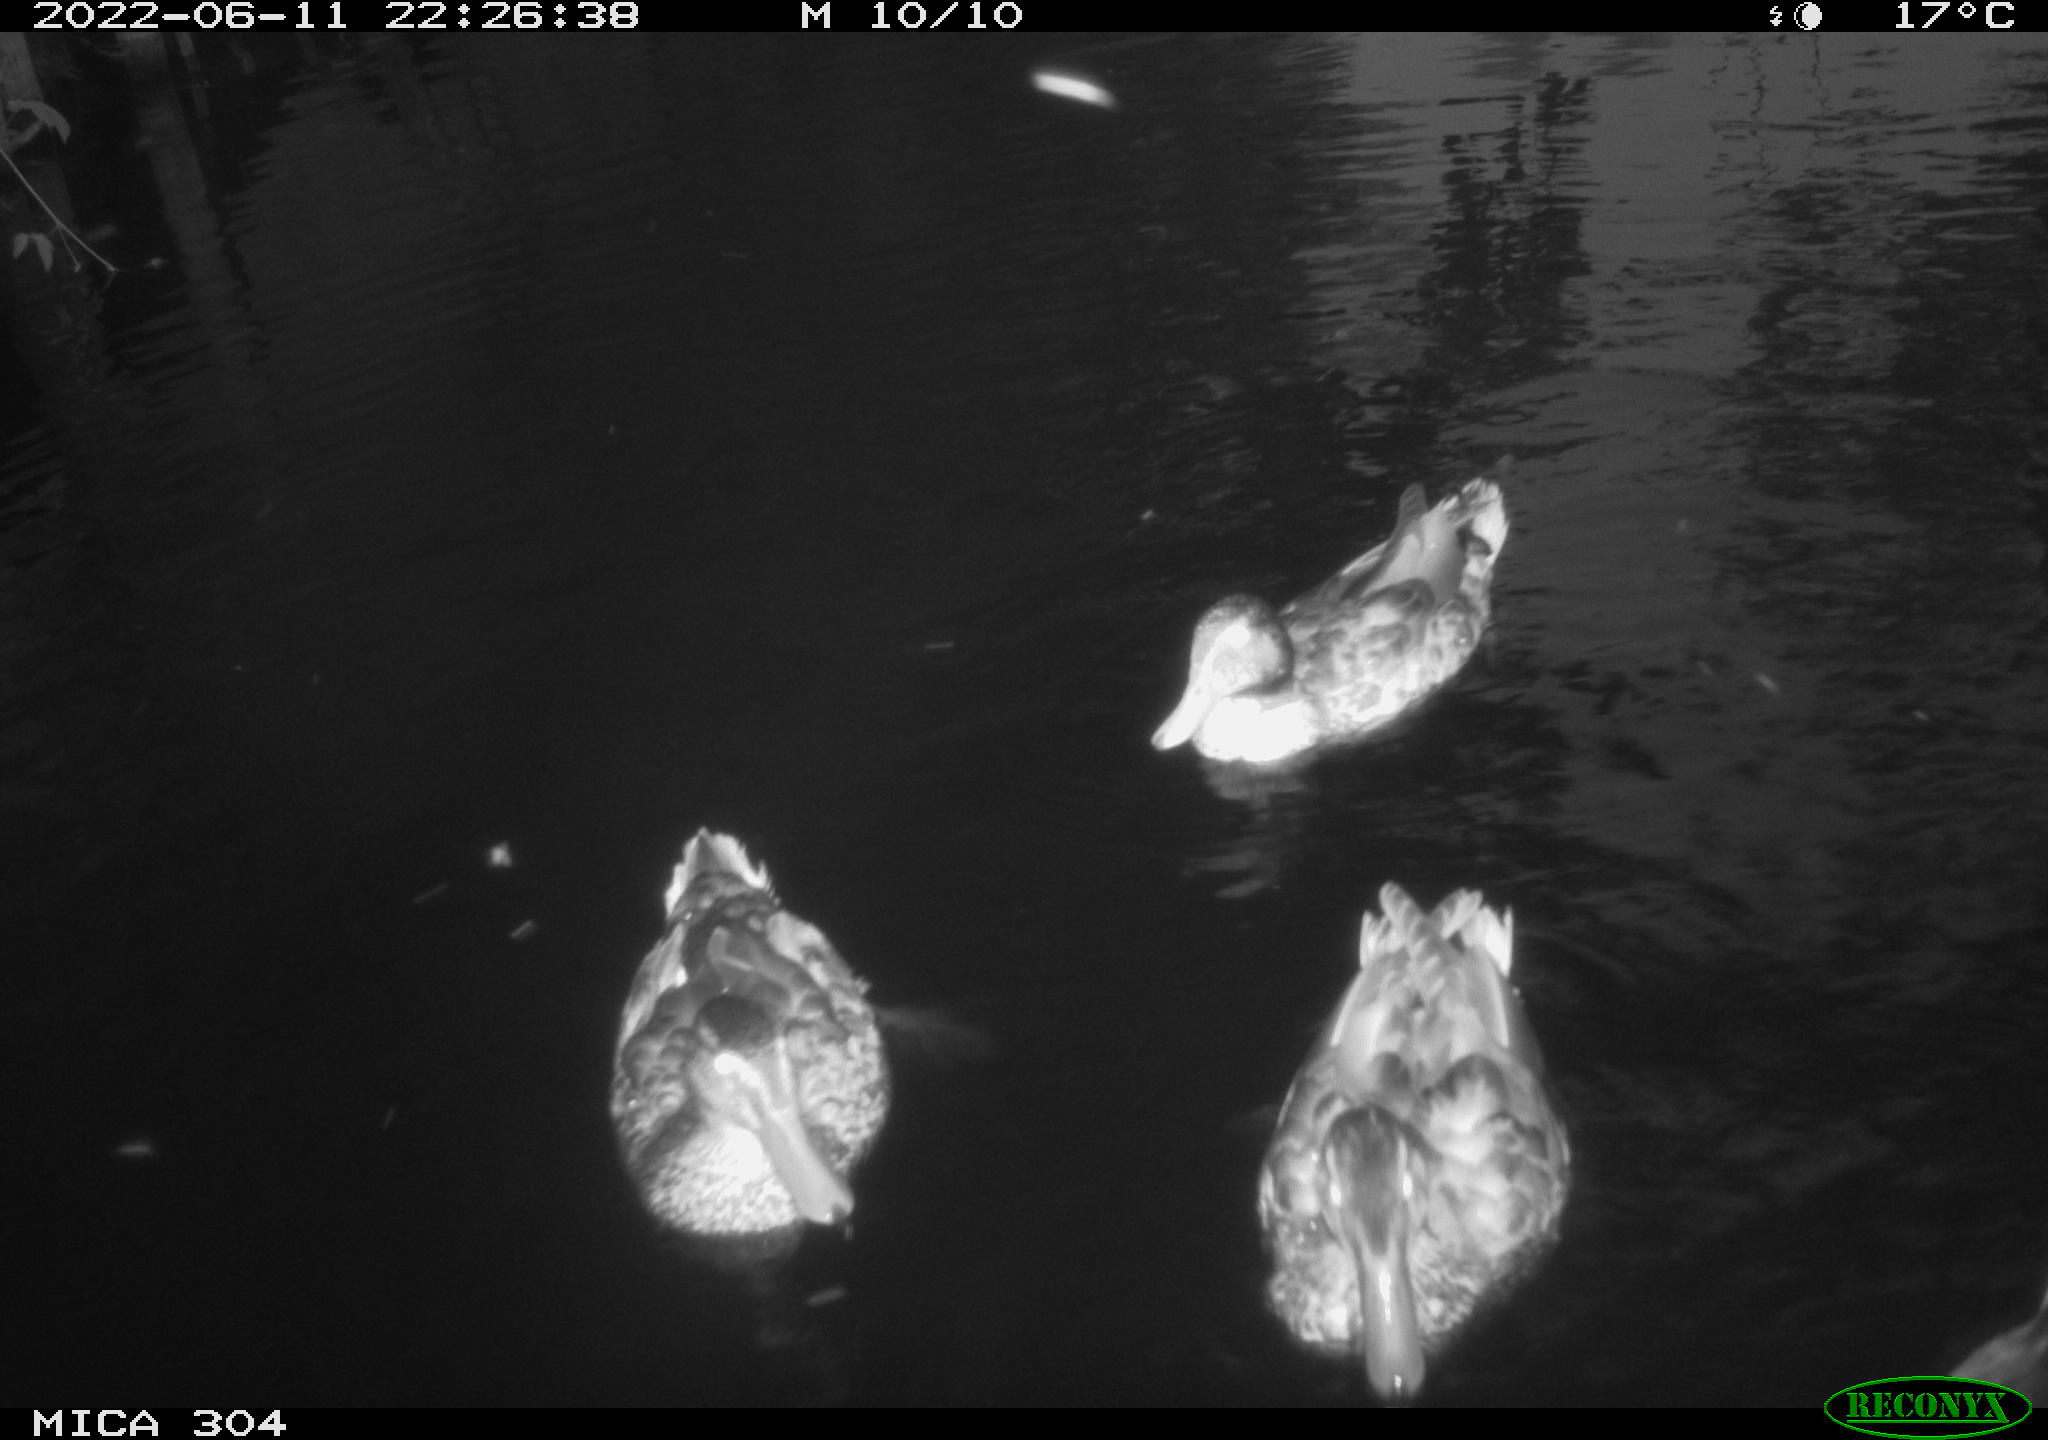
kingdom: Animalia
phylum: Chordata
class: Aves
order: Anseriformes
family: Anatidae
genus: Mareca
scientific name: Mareca strepera
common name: Gadwall
